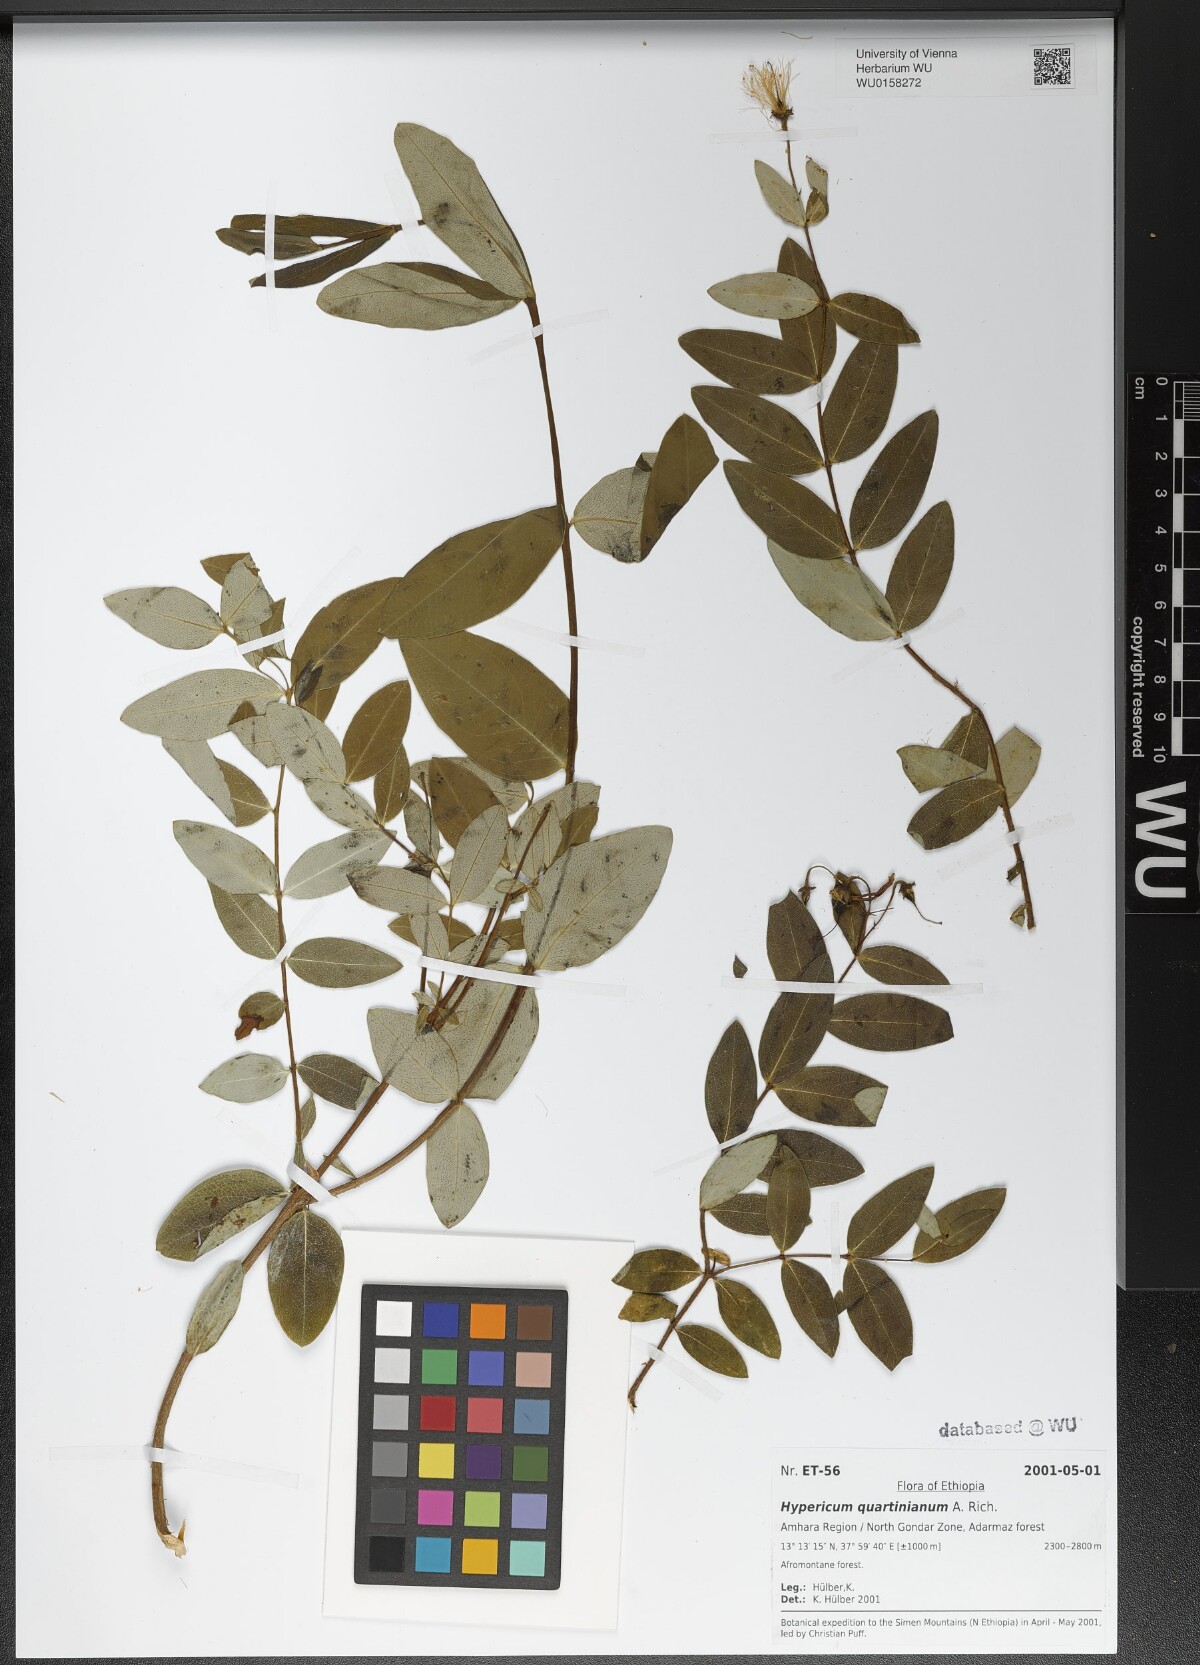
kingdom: Plantae
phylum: Tracheophyta
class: Magnoliopsida
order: Malpighiales
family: Hypericaceae
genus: Hypericum
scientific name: Hypericum quartinianum
